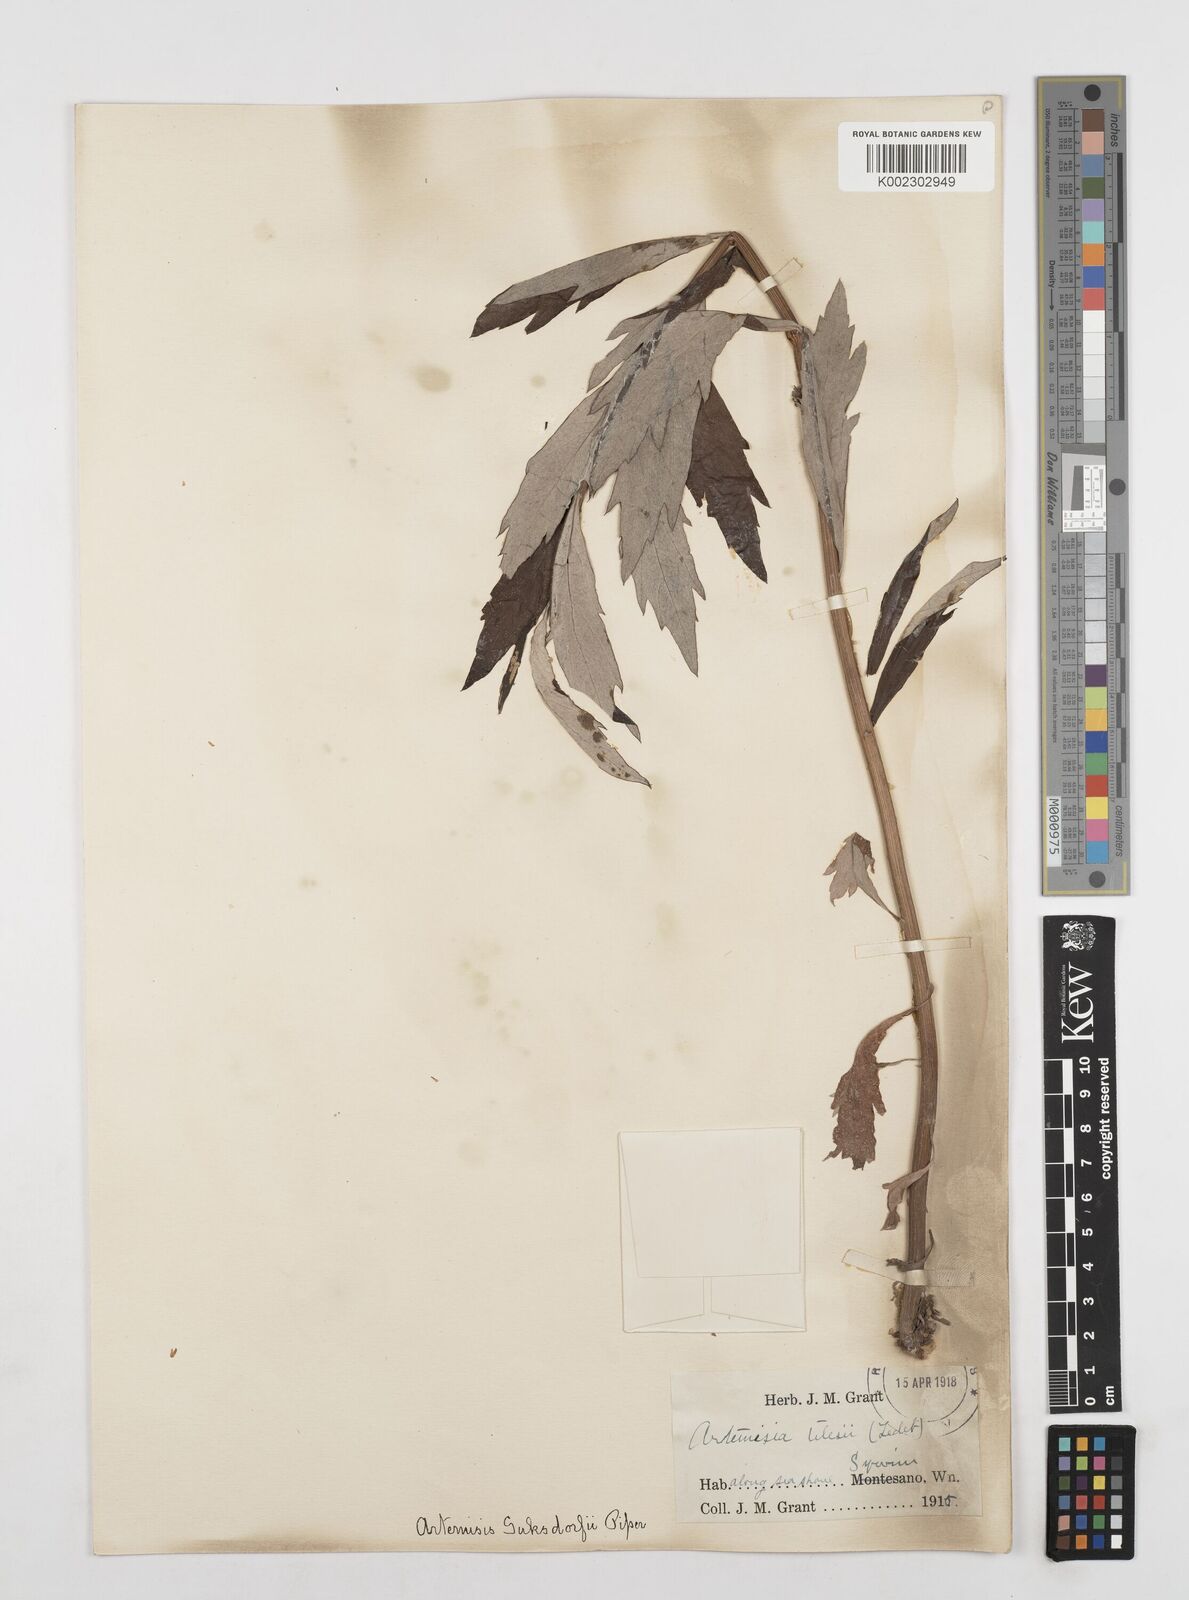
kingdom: Plantae
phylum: Tracheophyta
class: Magnoliopsida
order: Asterales
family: Asteraceae
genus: Artemisia
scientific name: Artemisia douglasiana
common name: Northwest mugwort
